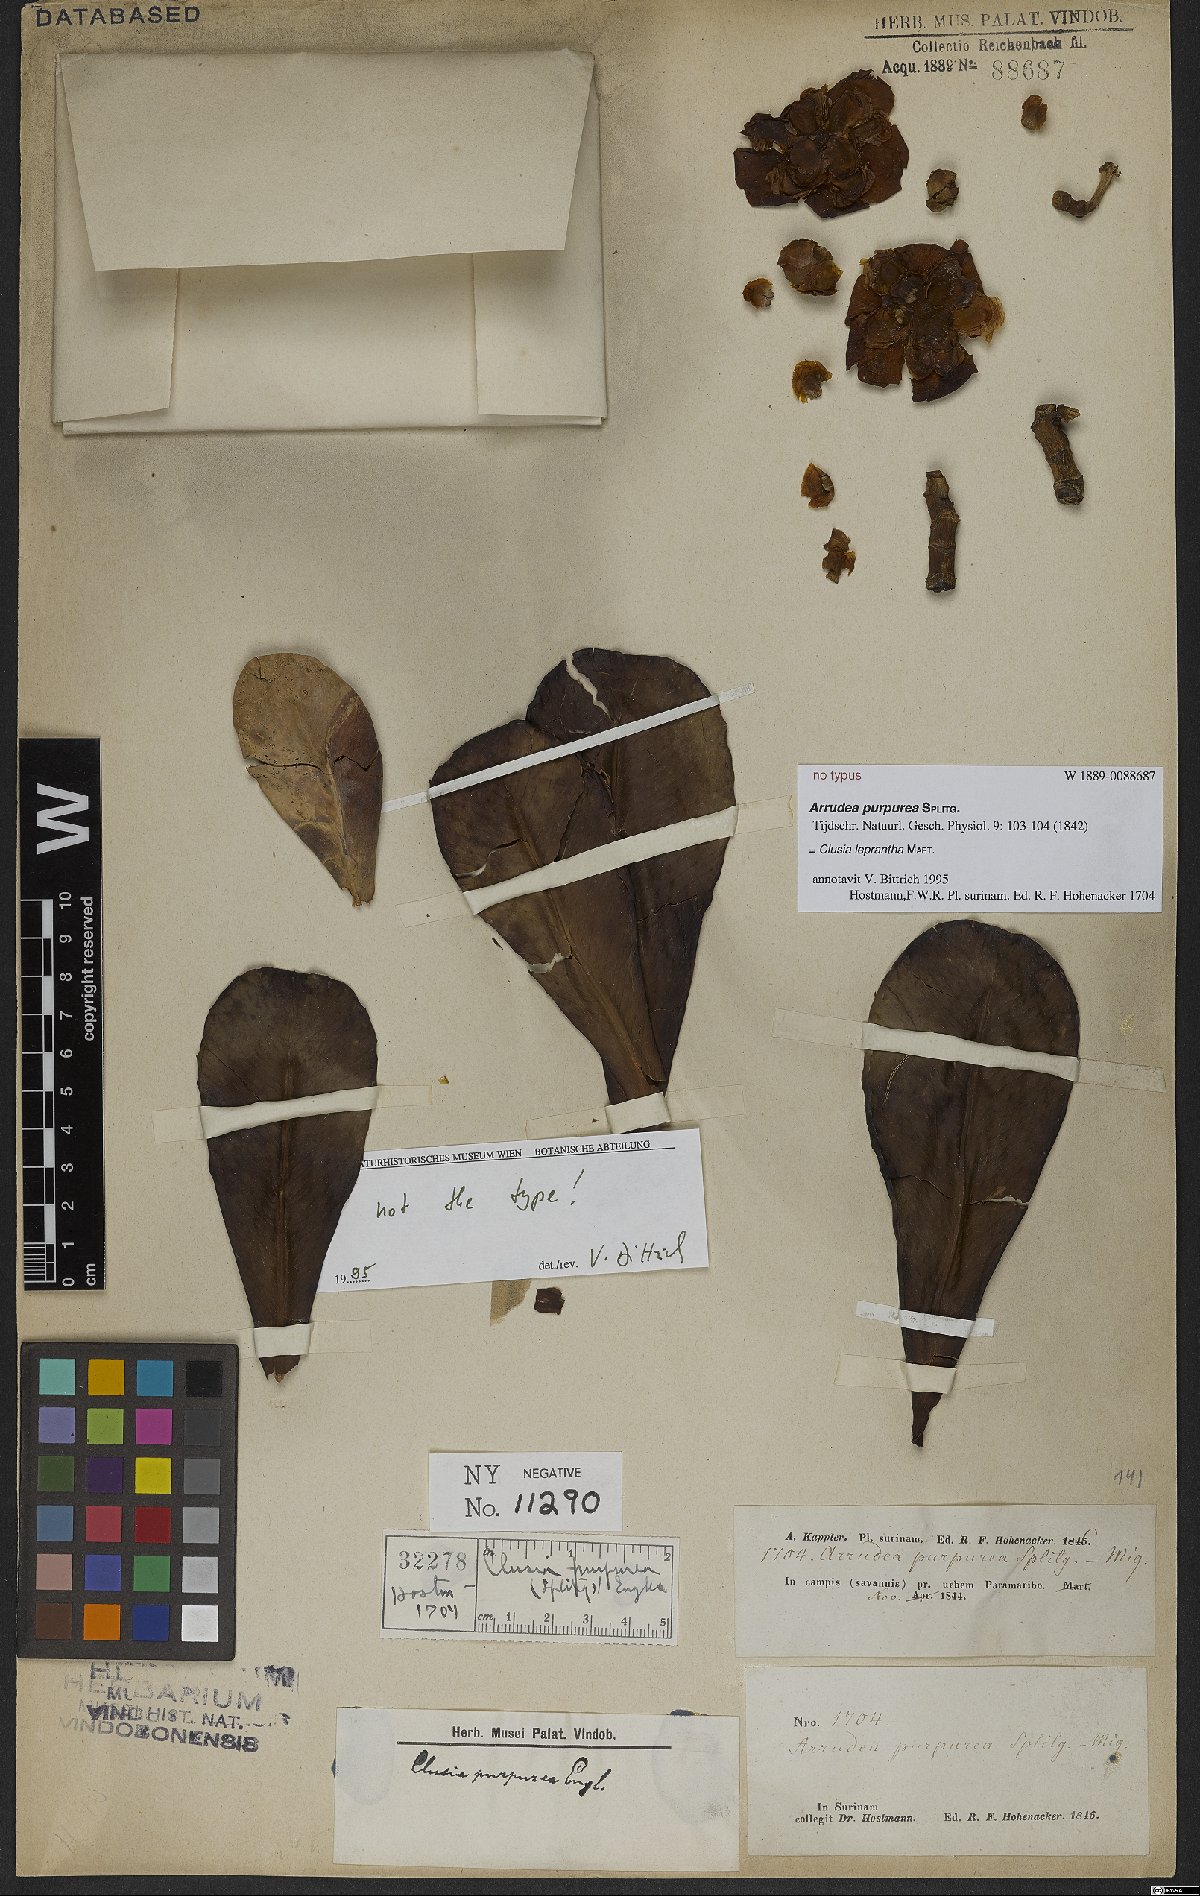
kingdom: Plantae
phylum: Tracheophyta
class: Magnoliopsida
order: Malpighiales
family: Clusiaceae
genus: Clusia
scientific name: Clusia leprantha
